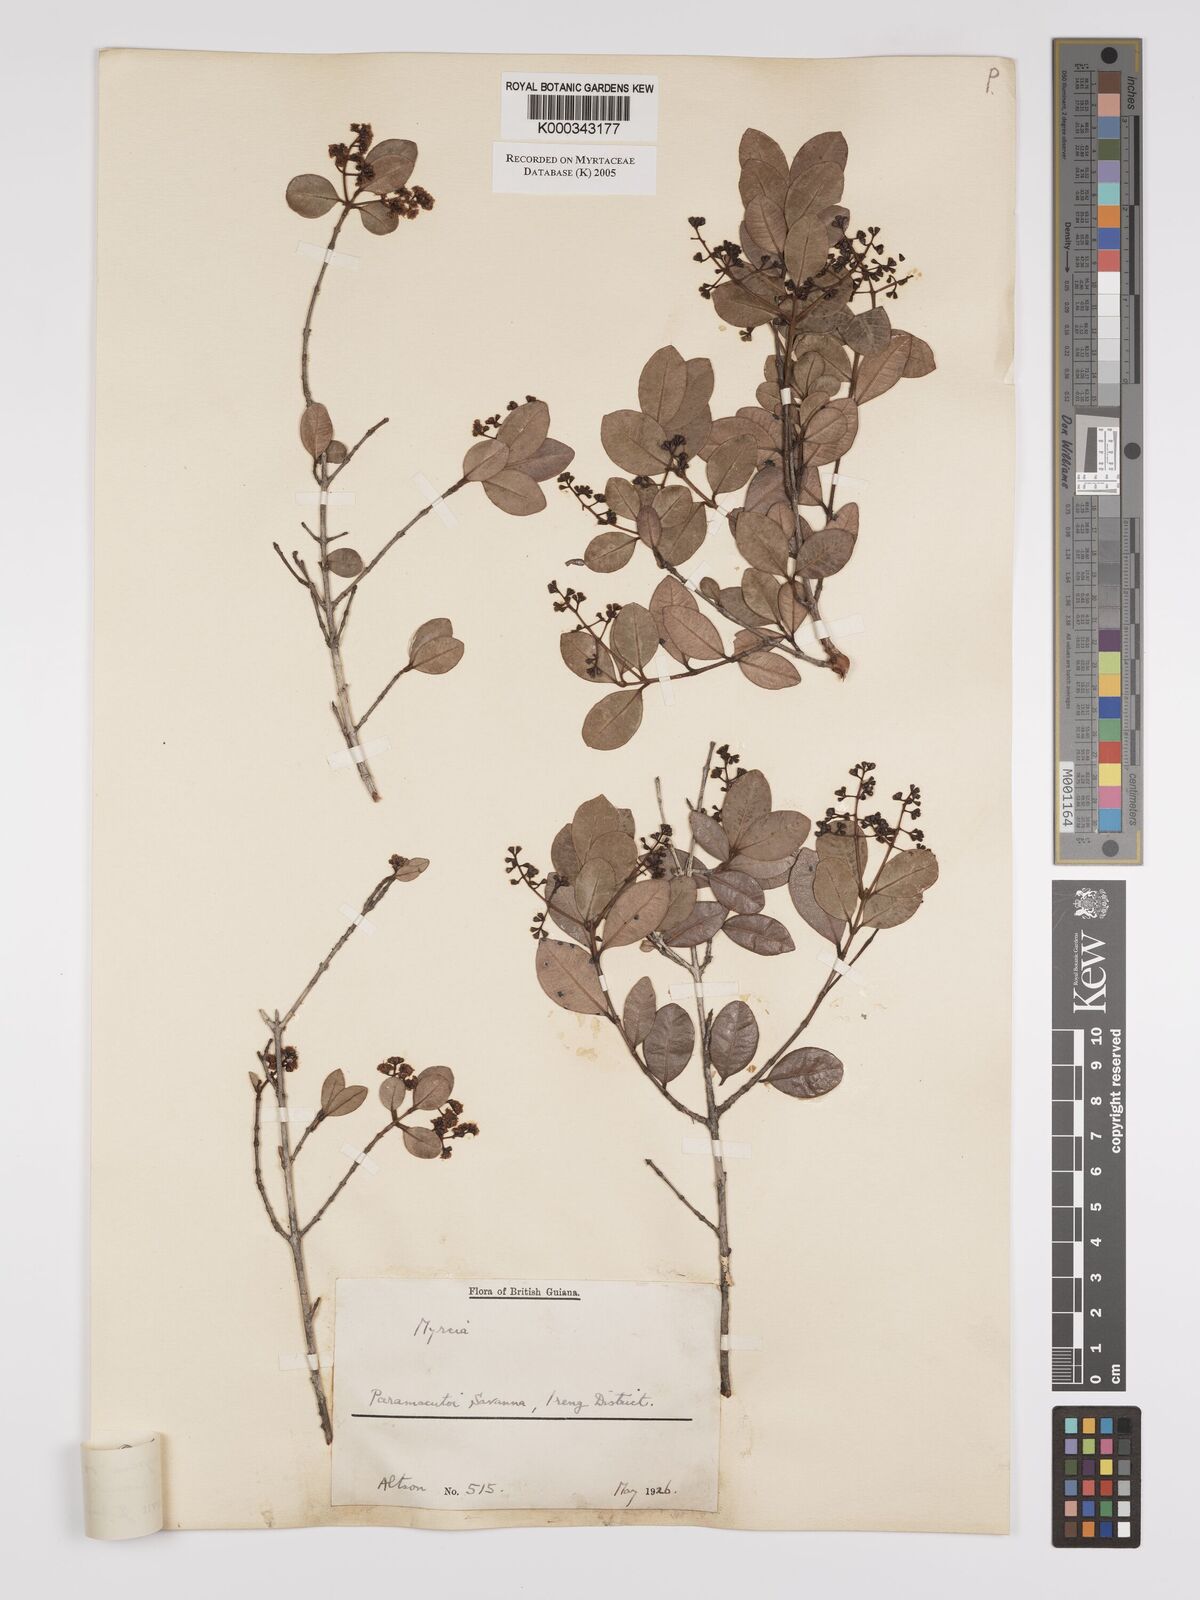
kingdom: Plantae
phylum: Tracheophyta
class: Magnoliopsida
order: Myrtales
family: Myrtaceae
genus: Myrcia
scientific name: Myrcia guianensis
